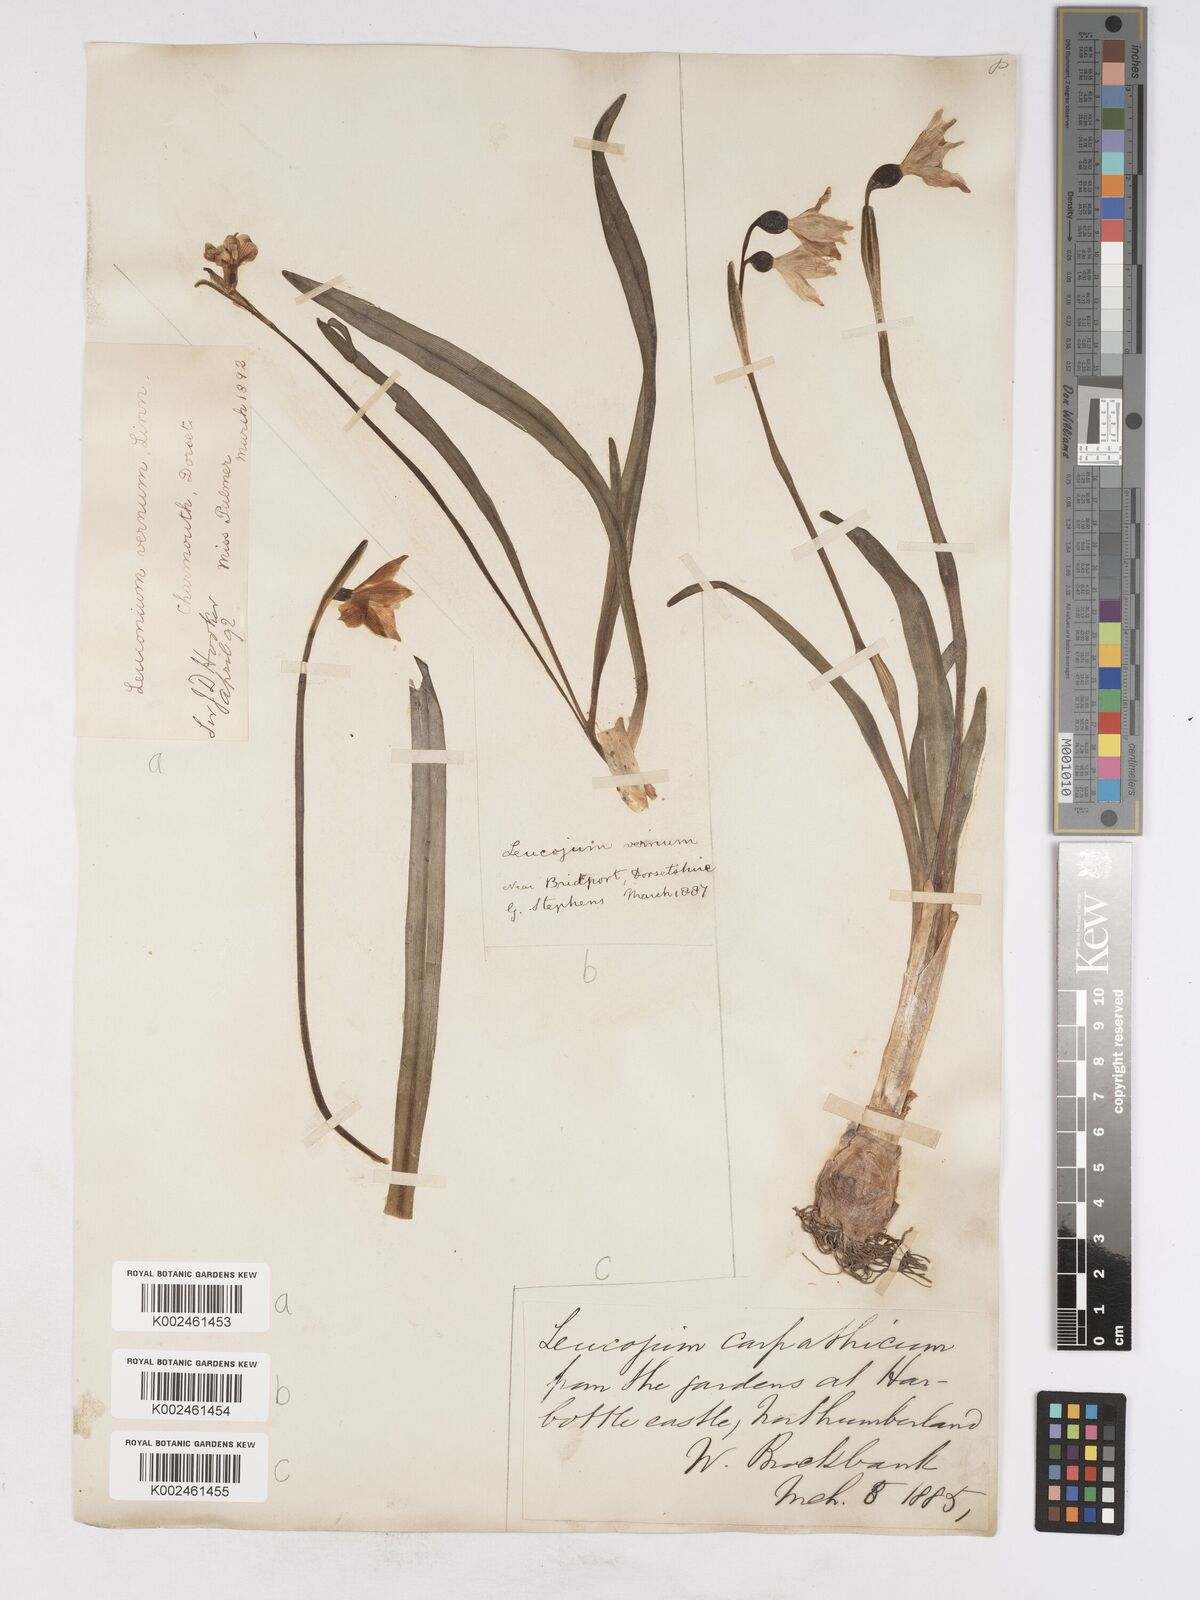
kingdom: Plantae
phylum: Tracheophyta
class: Liliopsida
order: Asparagales
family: Amaryllidaceae
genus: Leucojum
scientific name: Leucojum vernum
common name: Spring snowflake
